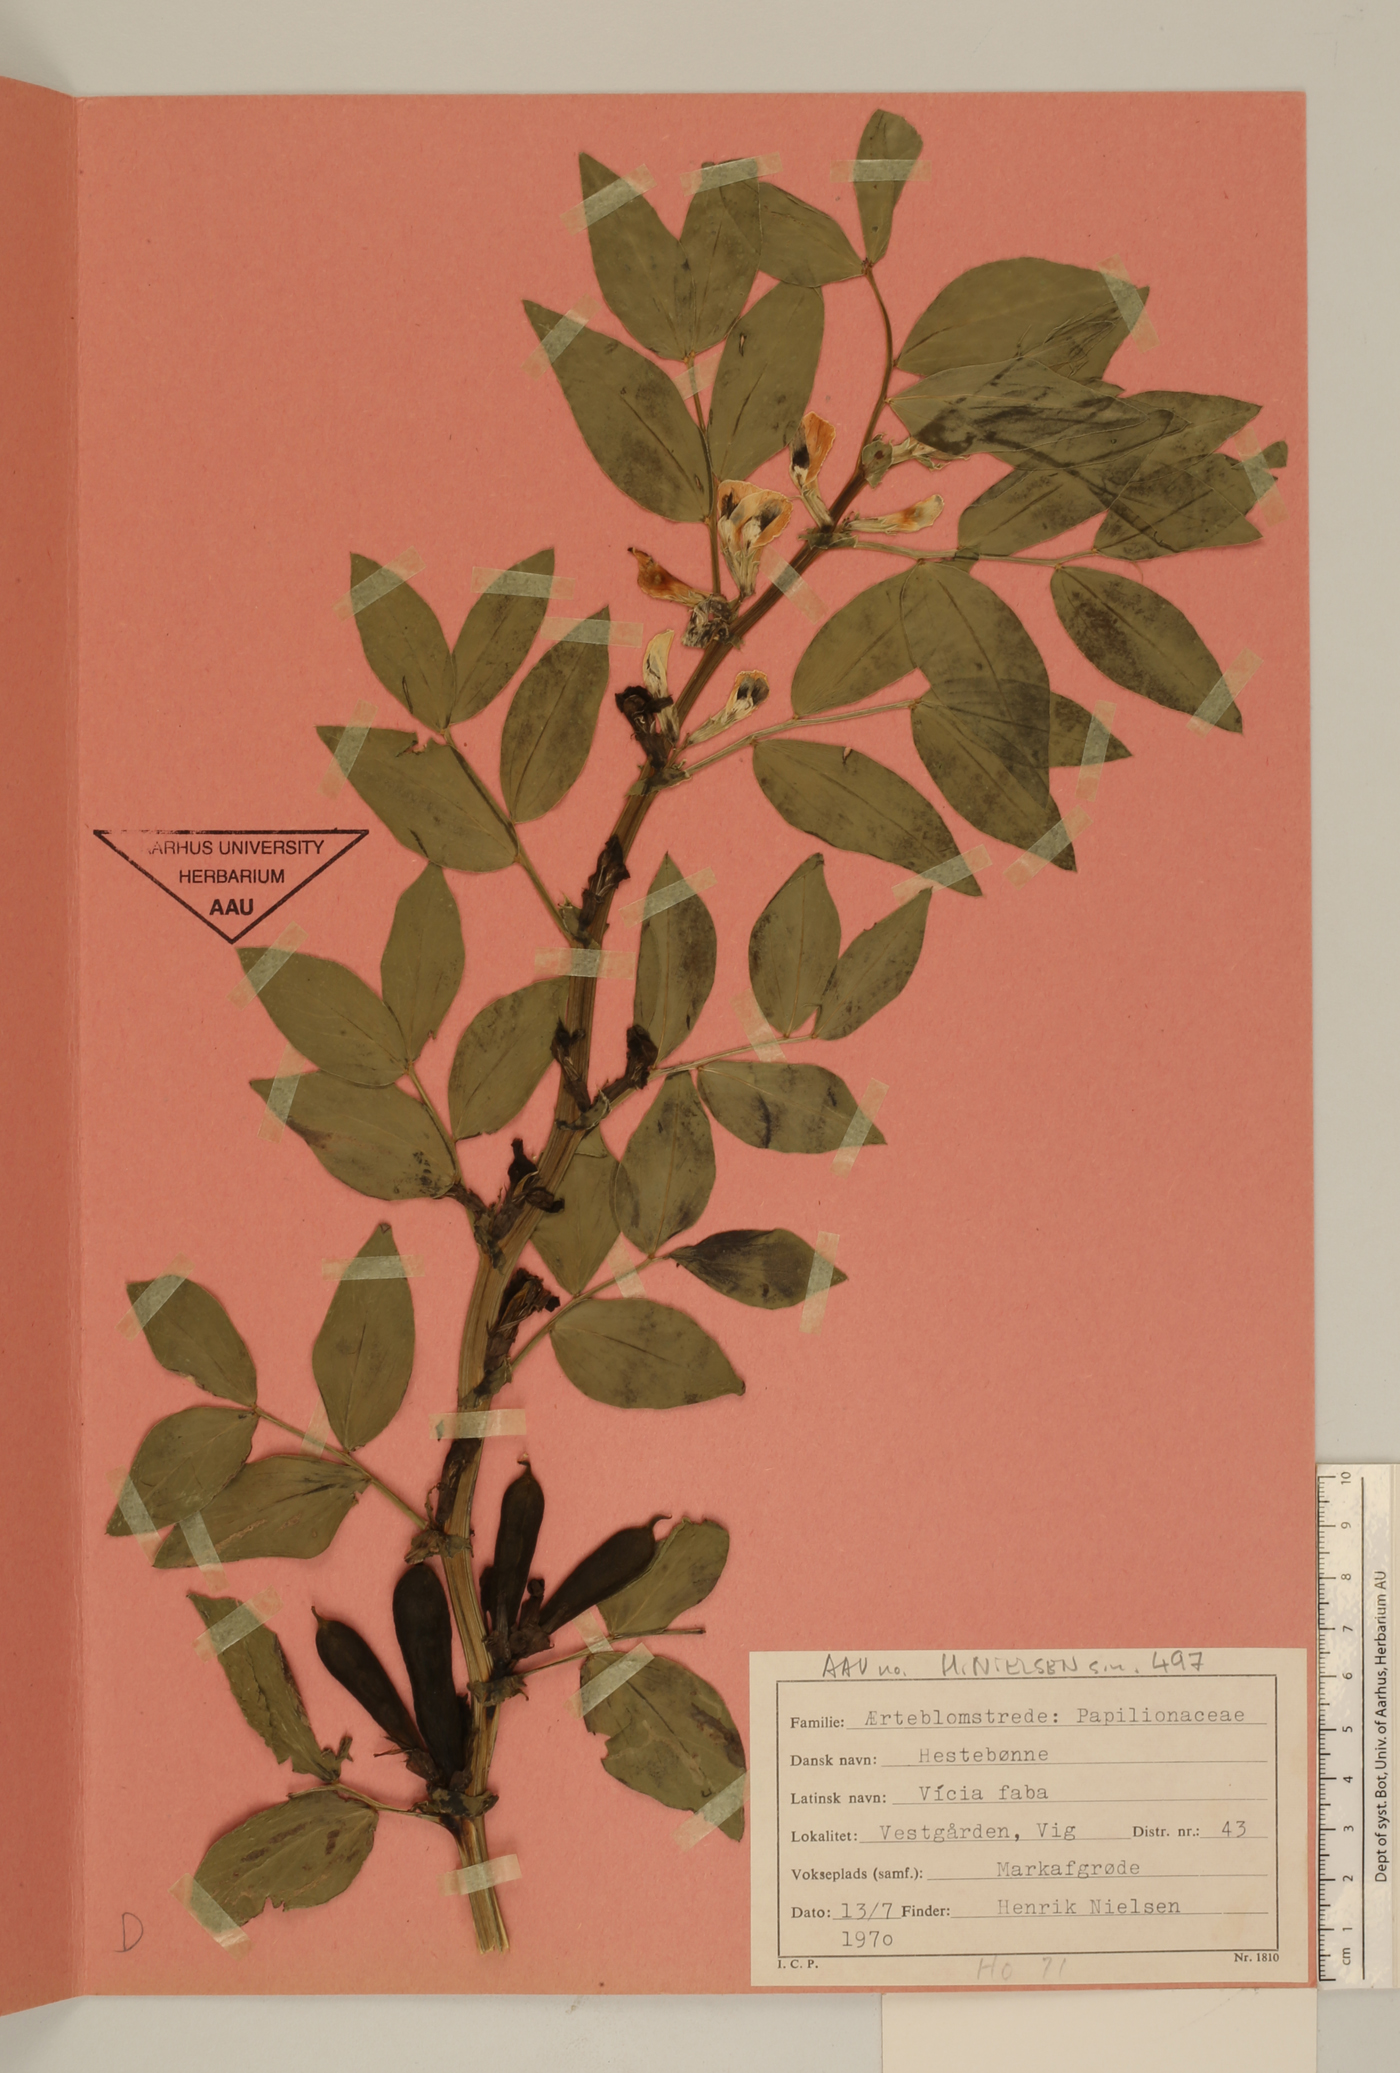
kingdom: Plantae
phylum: Tracheophyta
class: Magnoliopsida
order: Fabales
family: Fabaceae
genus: Vicia
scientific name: Vicia faba
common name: Broad bean
